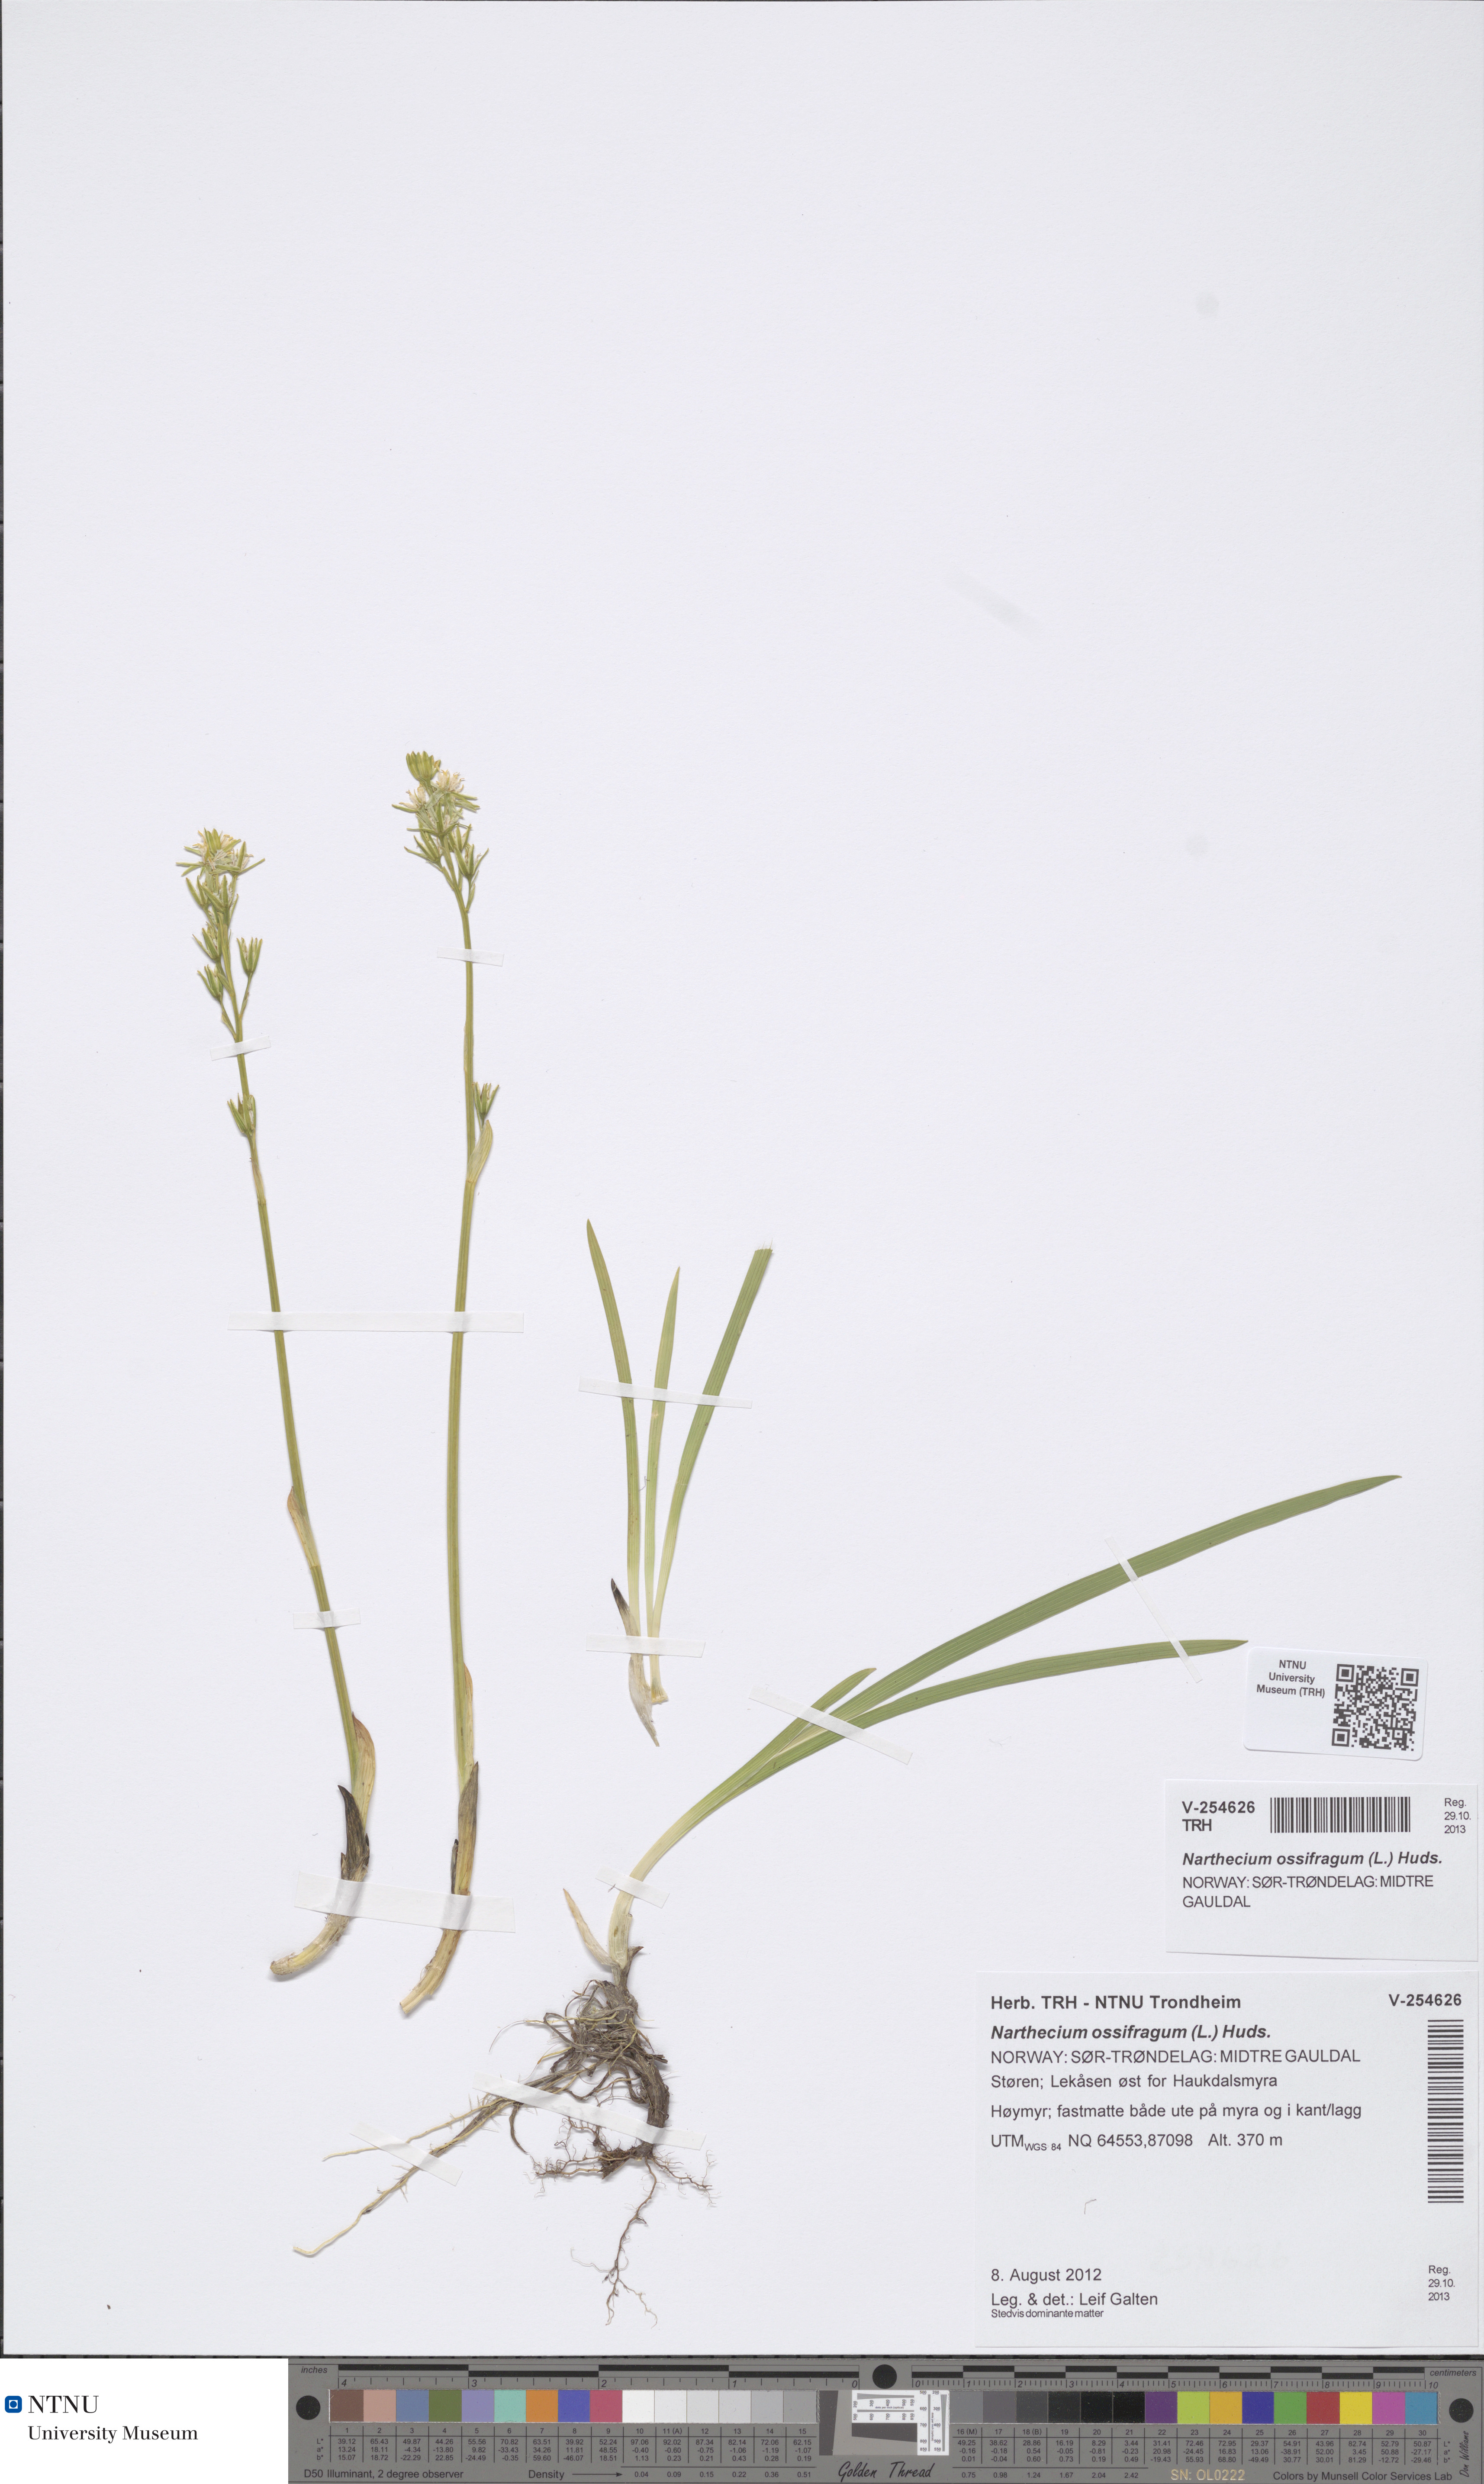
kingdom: Plantae
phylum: Tracheophyta
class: Liliopsida
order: Dioscoreales
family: Nartheciaceae
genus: Narthecium
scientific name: Narthecium ossifragum
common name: Bog asphodel
